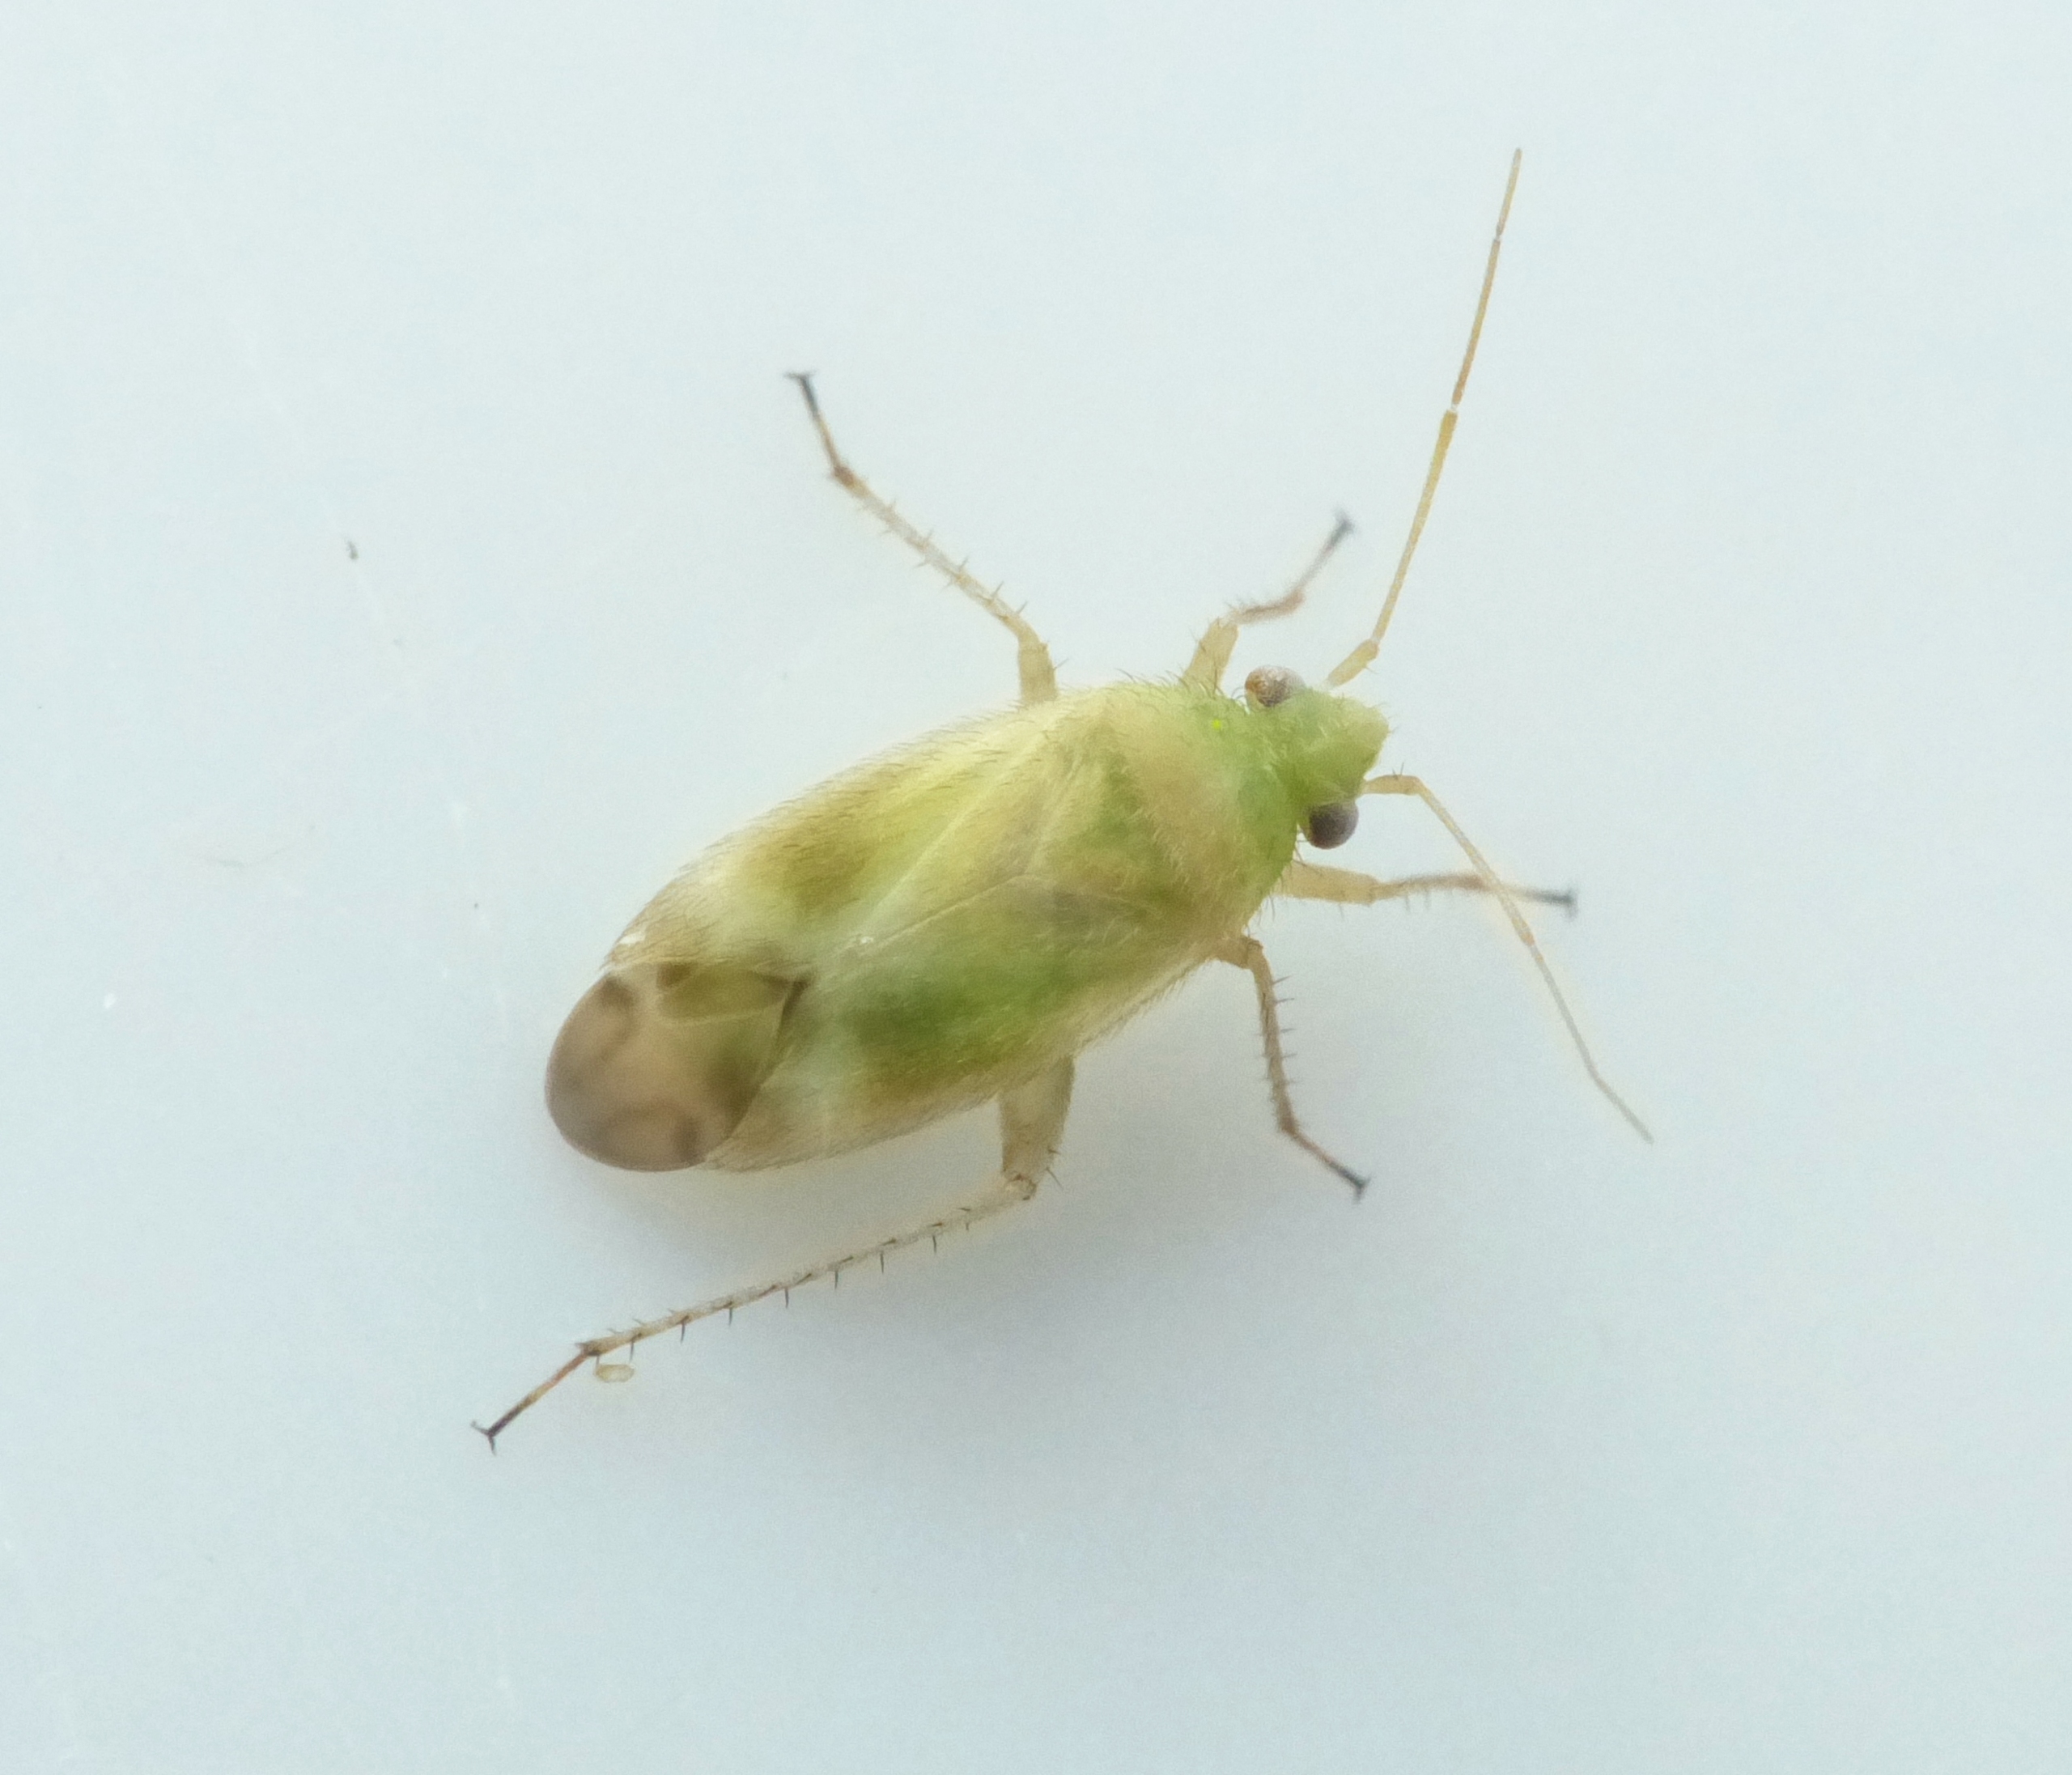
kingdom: Animalia
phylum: Arthropoda
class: Insecta
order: Hemiptera
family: Miridae
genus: Megalocoleus
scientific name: Megalocoleus molliculus
